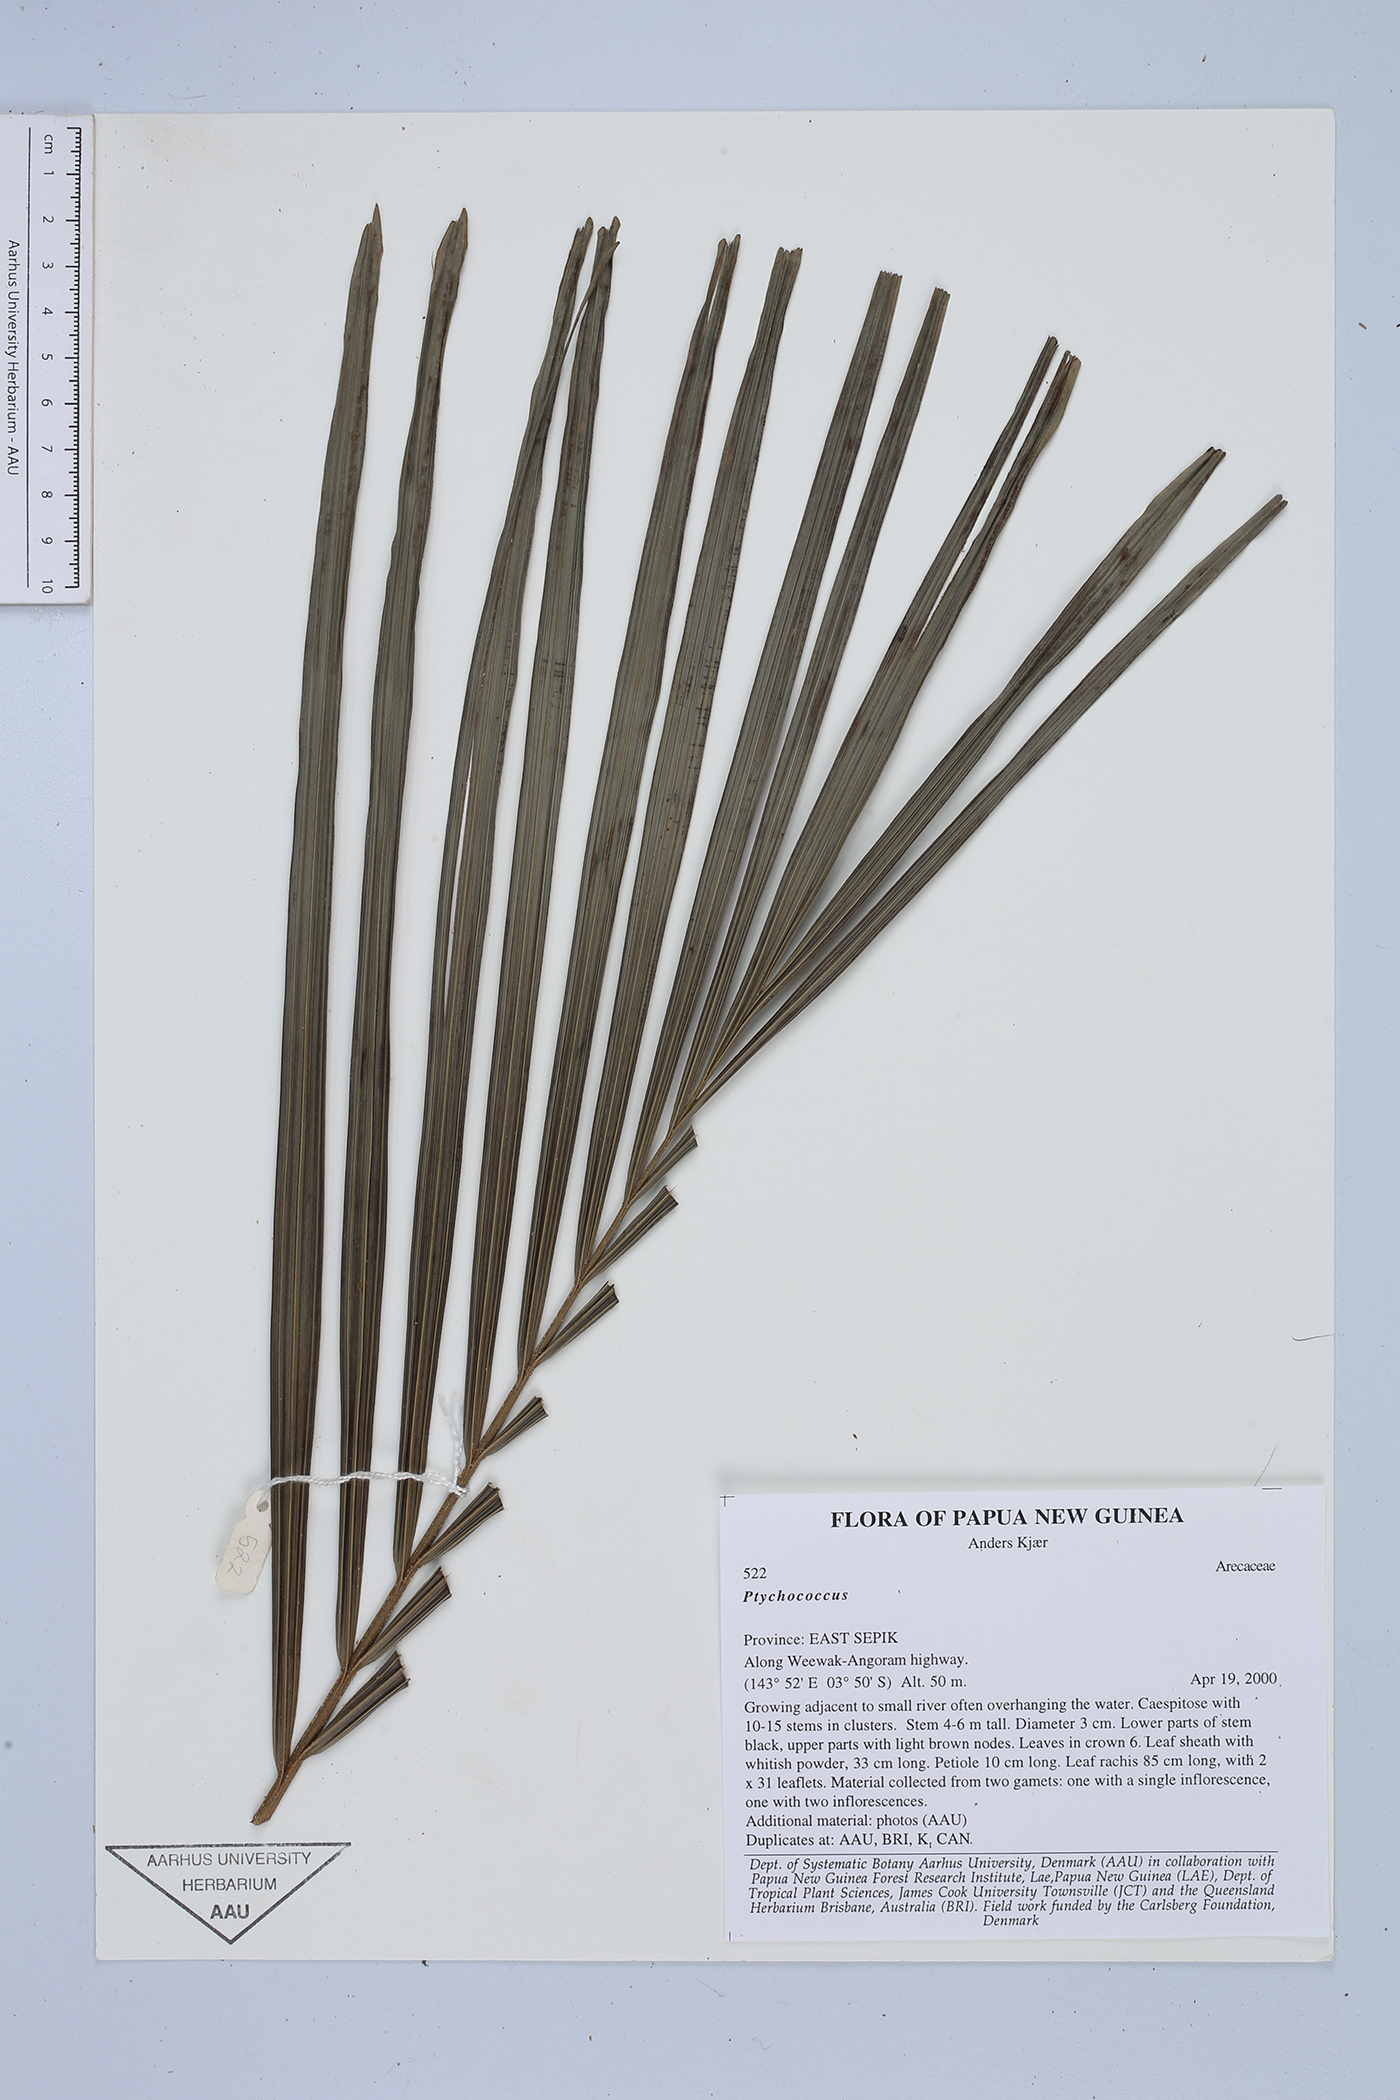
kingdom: Plantae
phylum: Tracheophyta
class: Liliopsida
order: Arecales
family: Arecaceae
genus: Ptychococcus
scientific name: Ptychococcus
